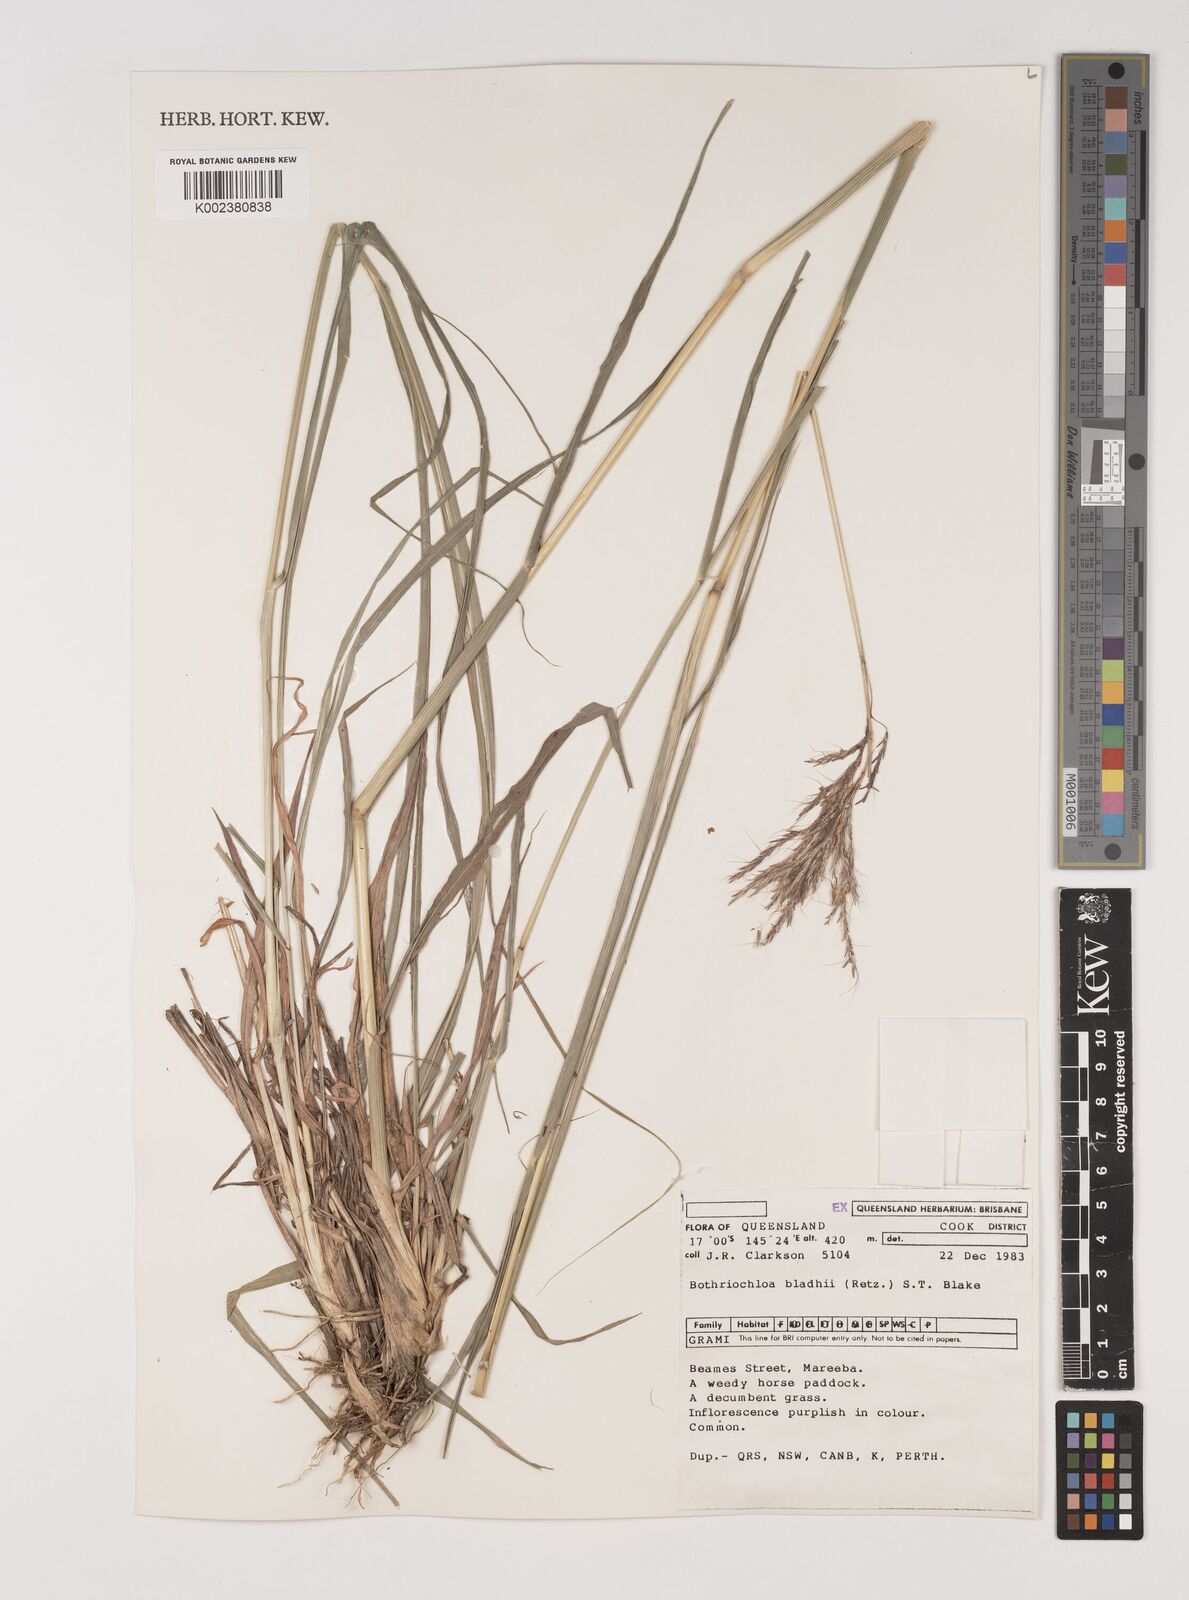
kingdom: Plantae
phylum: Tracheophyta
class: Liliopsida
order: Poales
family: Poaceae
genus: Bothriochloa
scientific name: Bothriochloa bladhii
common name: Caucasian bluestem
